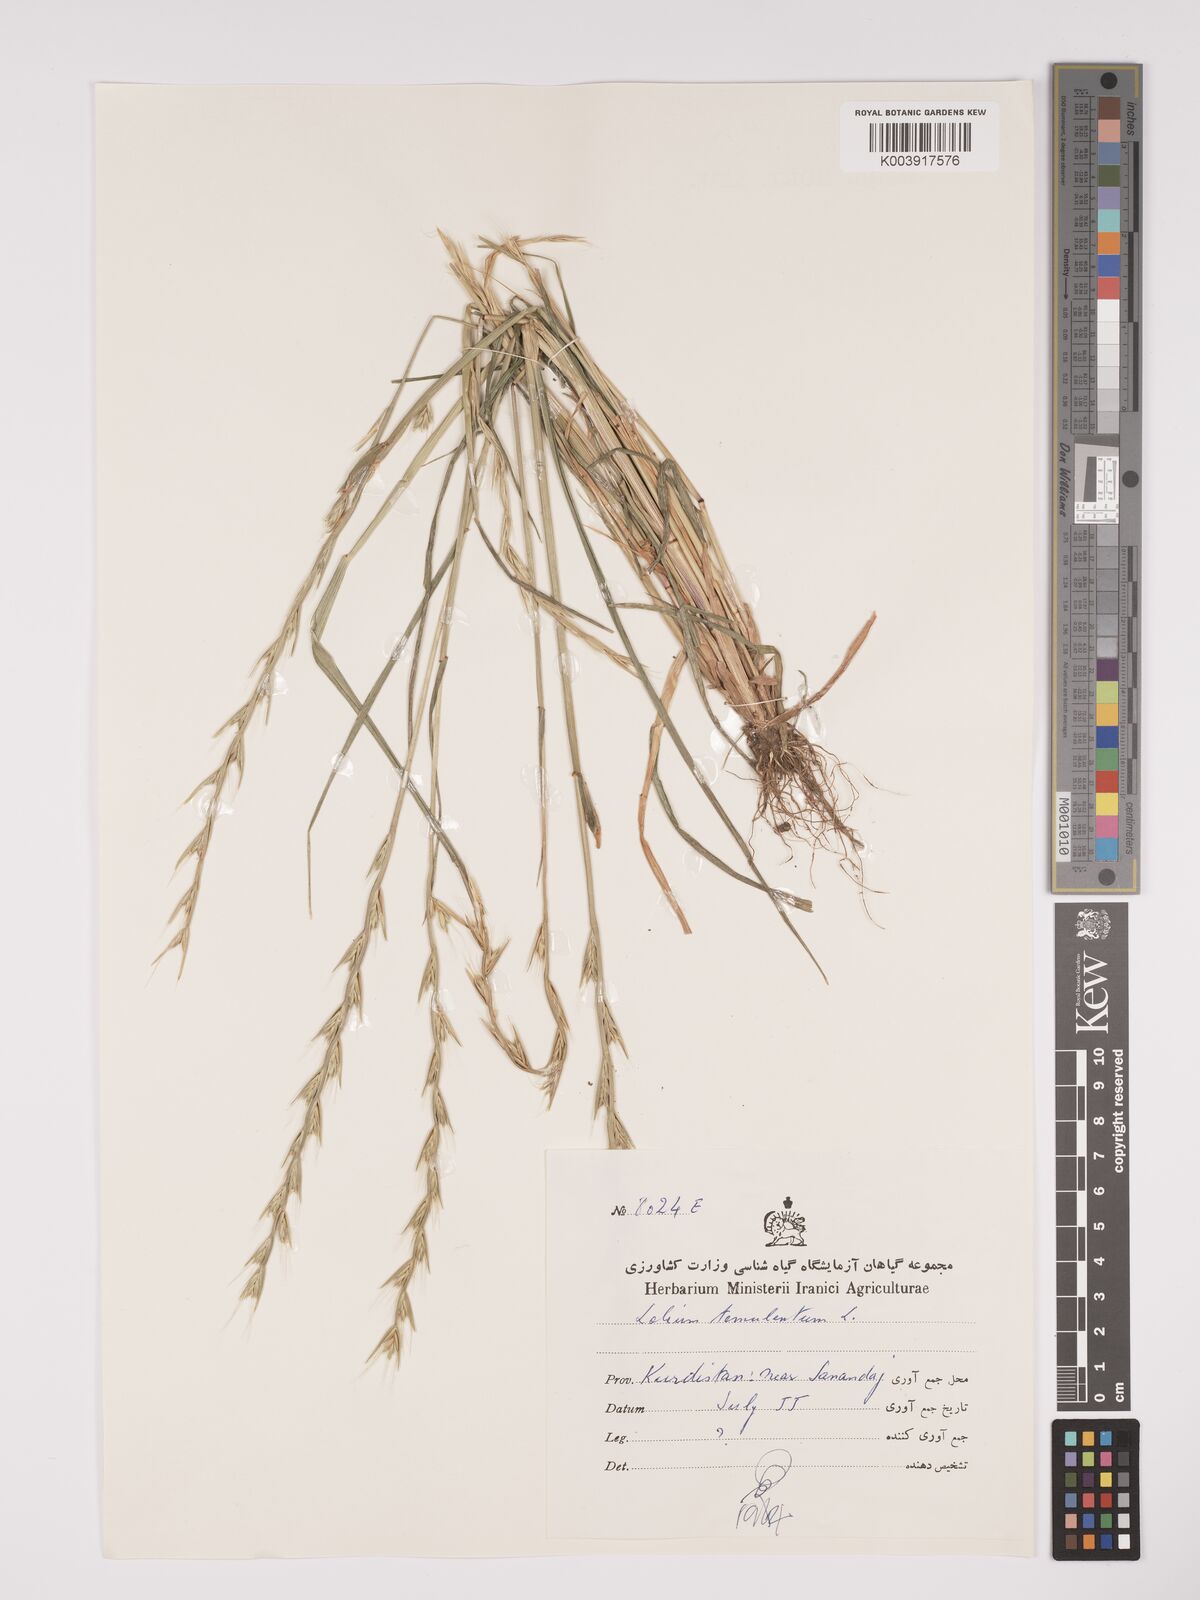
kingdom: Plantae
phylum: Tracheophyta
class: Liliopsida
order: Poales
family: Poaceae
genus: Lolium
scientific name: Lolium temulentum
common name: Darnel
